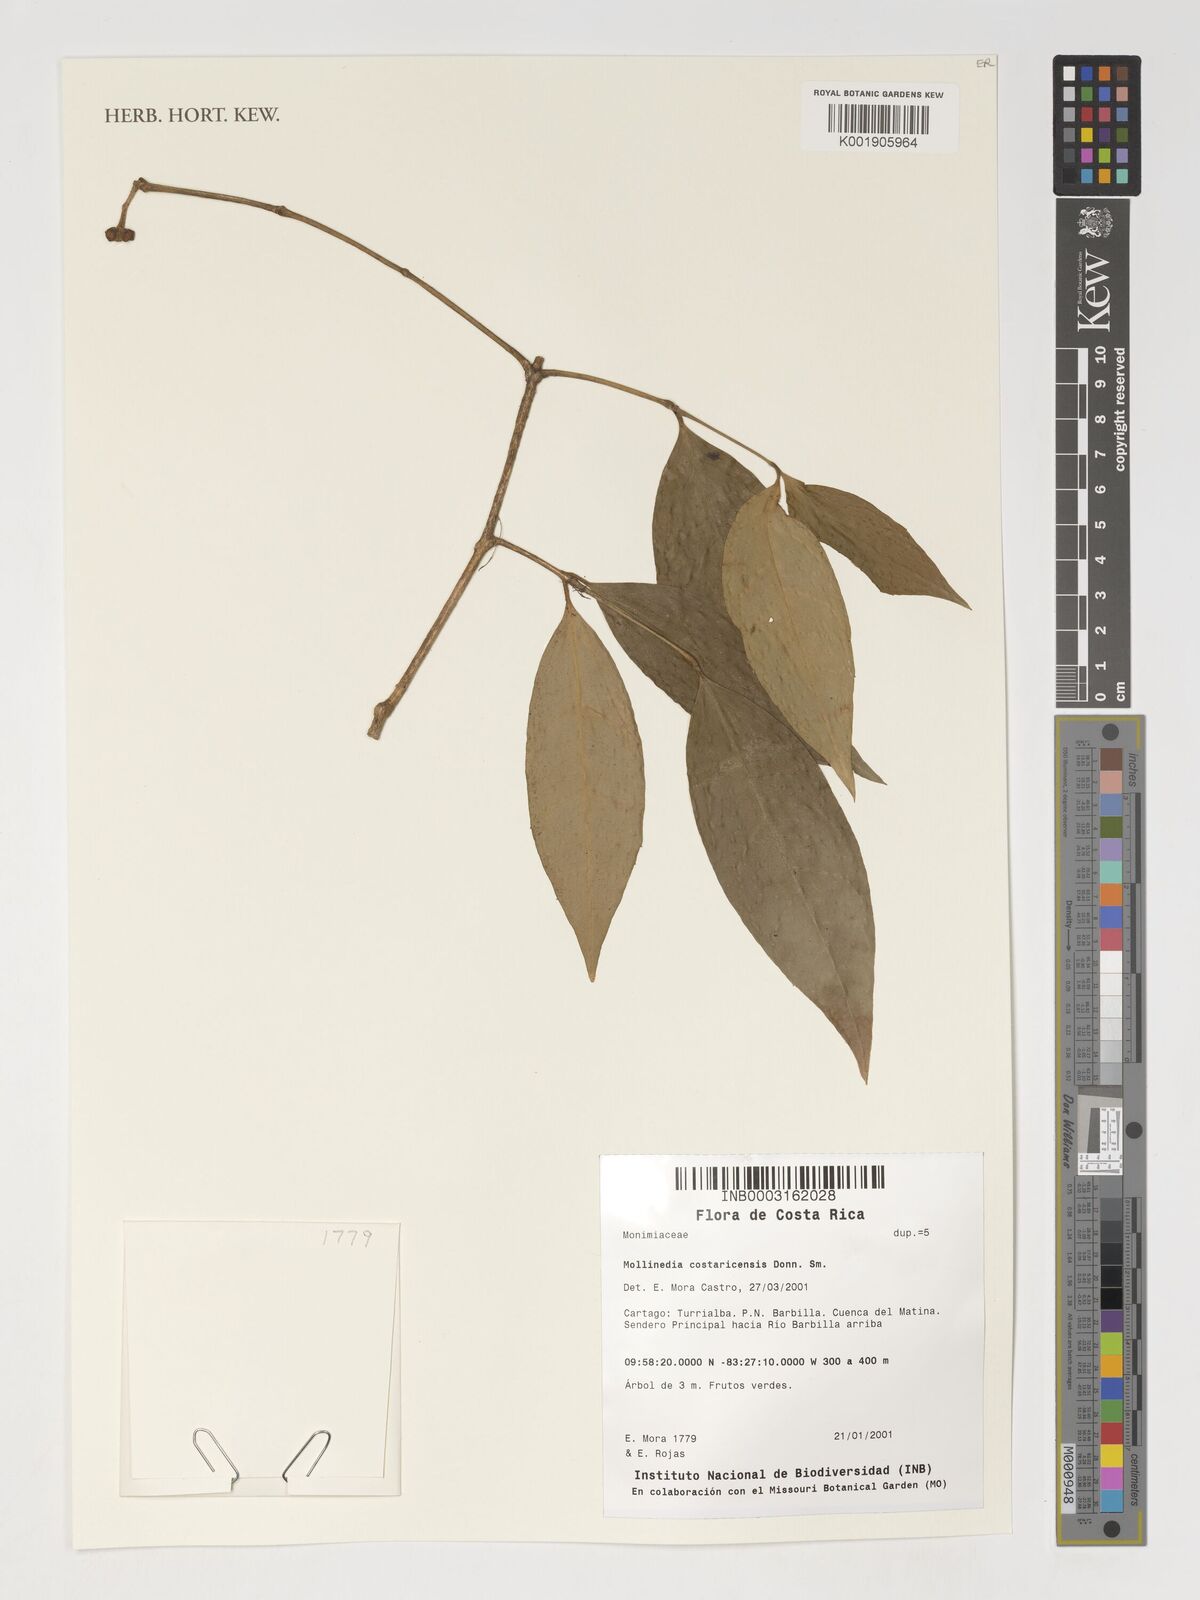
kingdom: Plantae
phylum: Tracheophyta
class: Magnoliopsida
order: Laurales
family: Monimiaceae
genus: Mollinedia
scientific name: Mollinedia costaricensis
